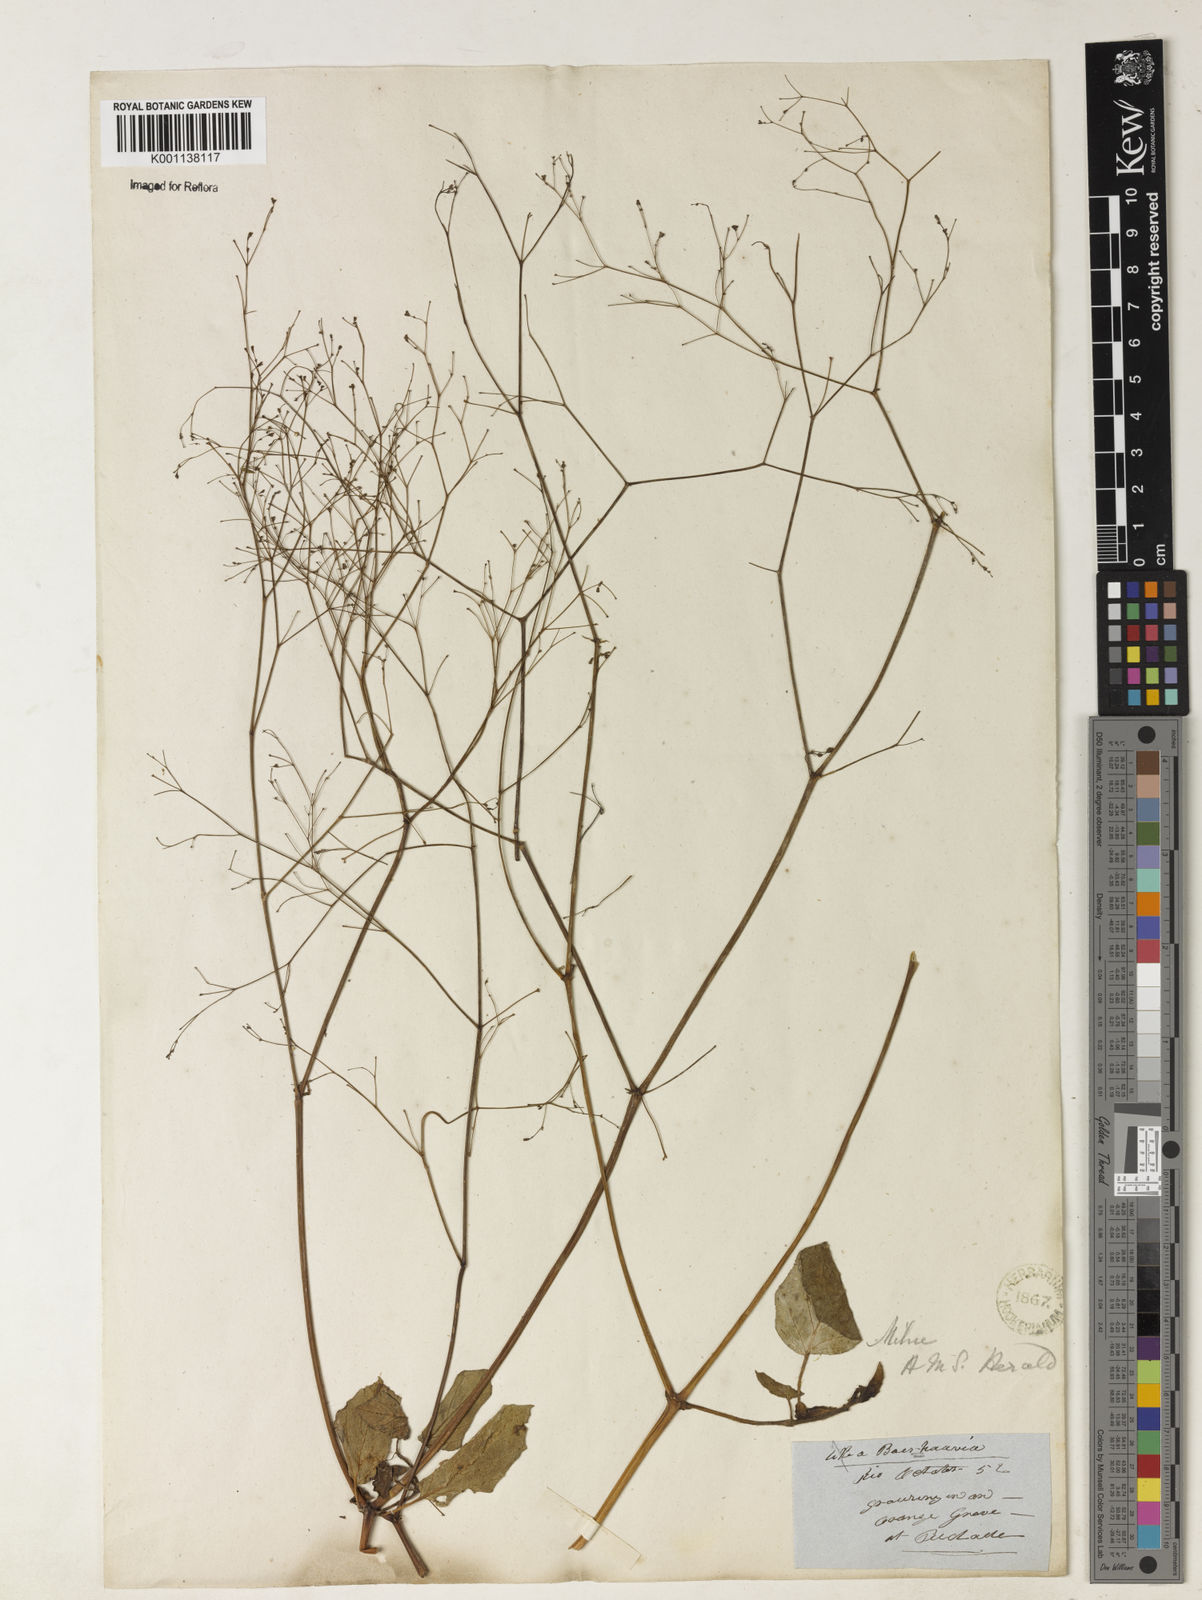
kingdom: Plantae
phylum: Tracheophyta
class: Magnoliopsida
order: Caryophyllales
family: Nyctaginaceae
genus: Boerhavia
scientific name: Boerhavia diffusa
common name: Red spiderling
